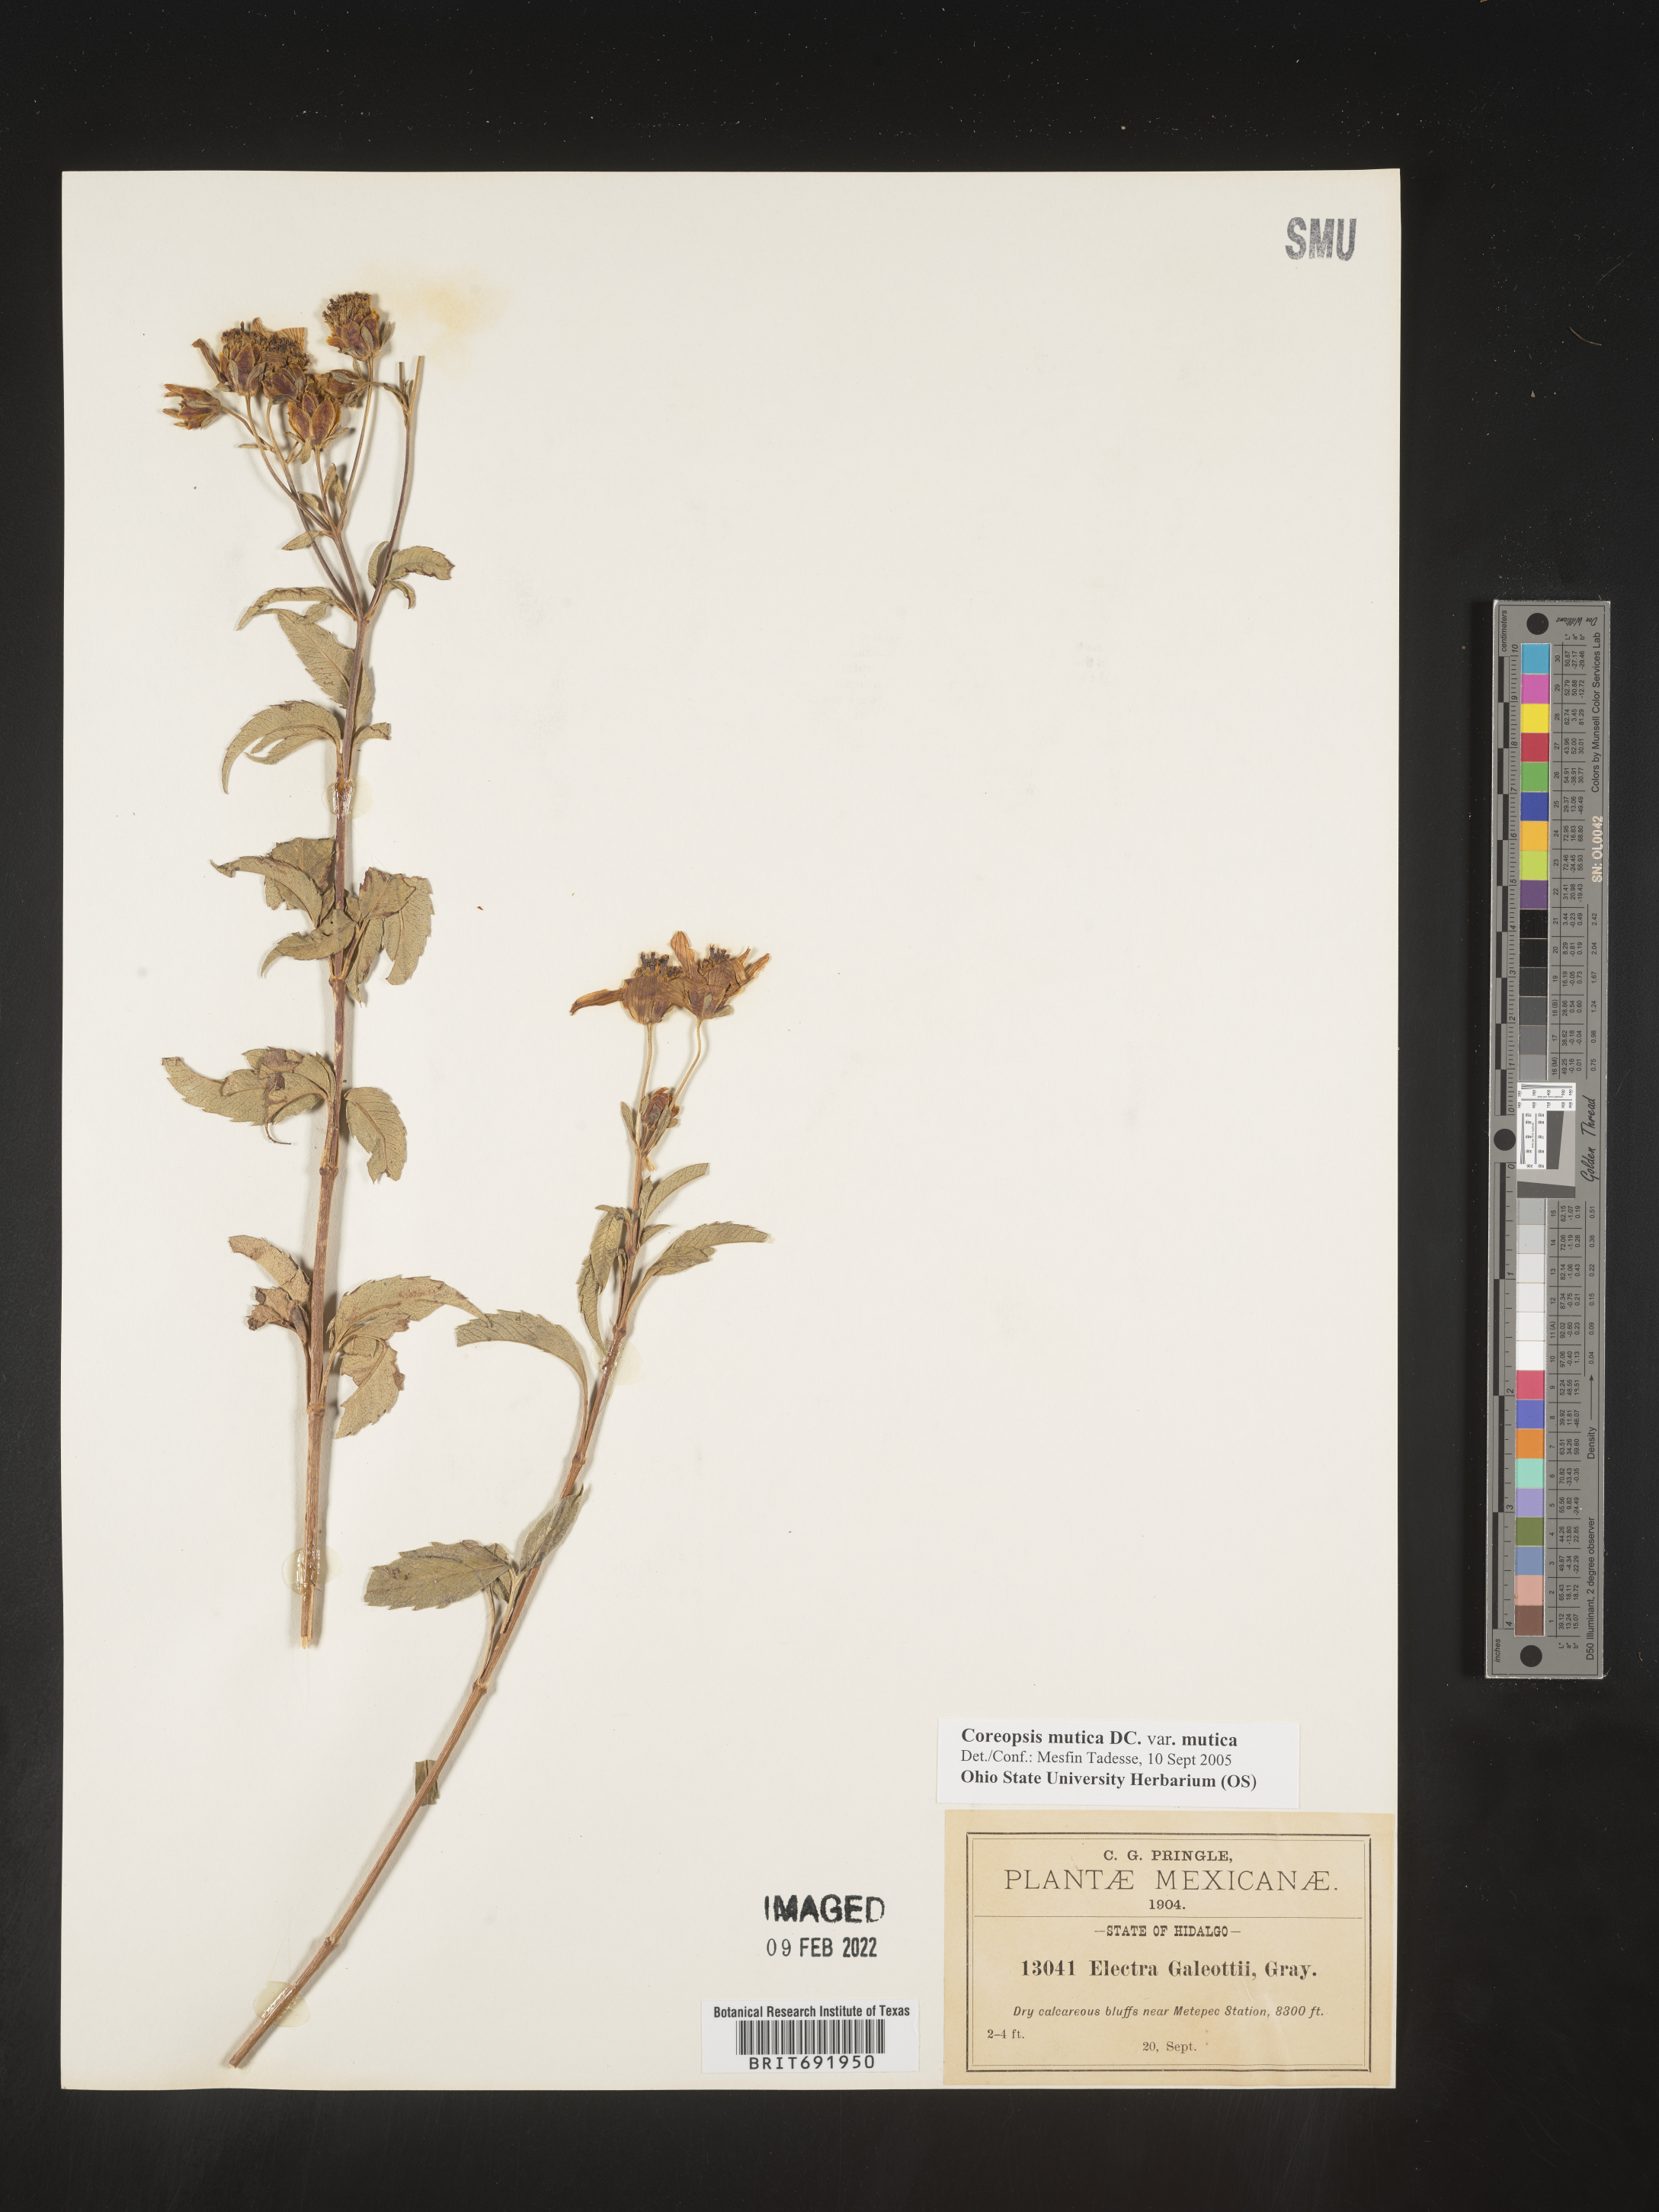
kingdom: Plantae
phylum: Tracheophyta
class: Magnoliopsida
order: Asterales
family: Asteraceae
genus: Coreopsis
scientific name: Coreopsis
